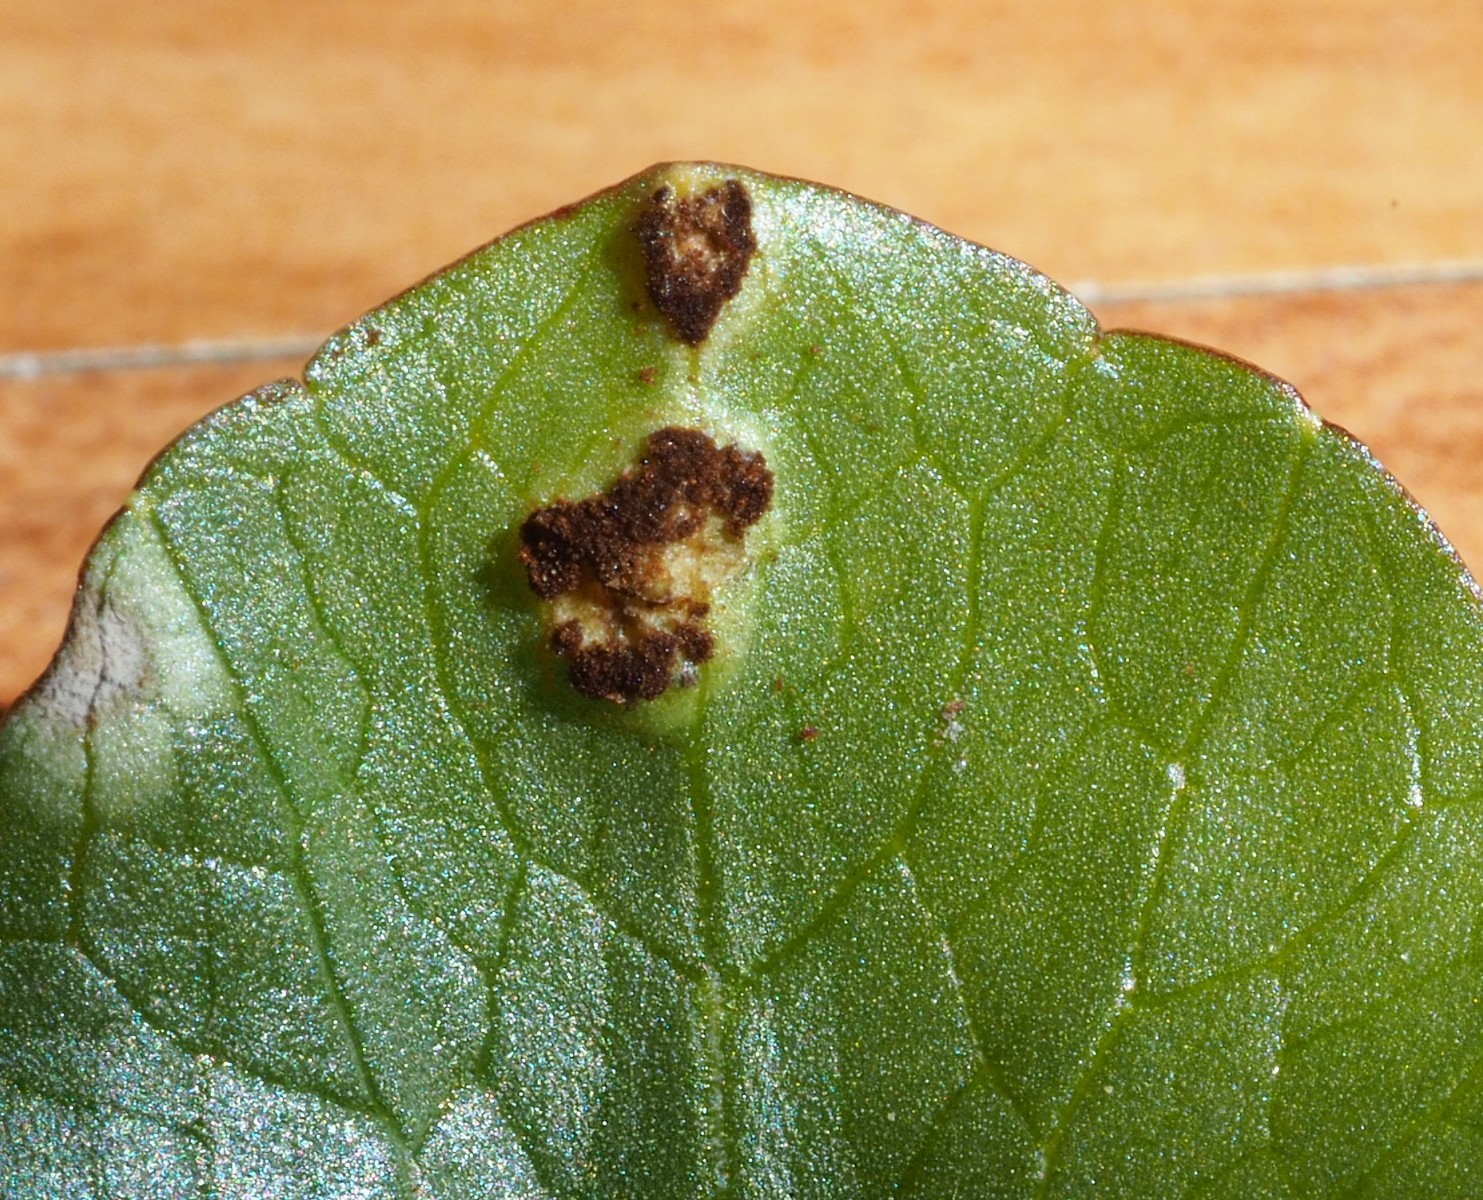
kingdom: Fungi
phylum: Basidiomycota
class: Pucciniomycetes
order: Pucciniales
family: Pucciniaceae
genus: Uromyces
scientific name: Uromyces ficariae
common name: vorterod-encellerust
